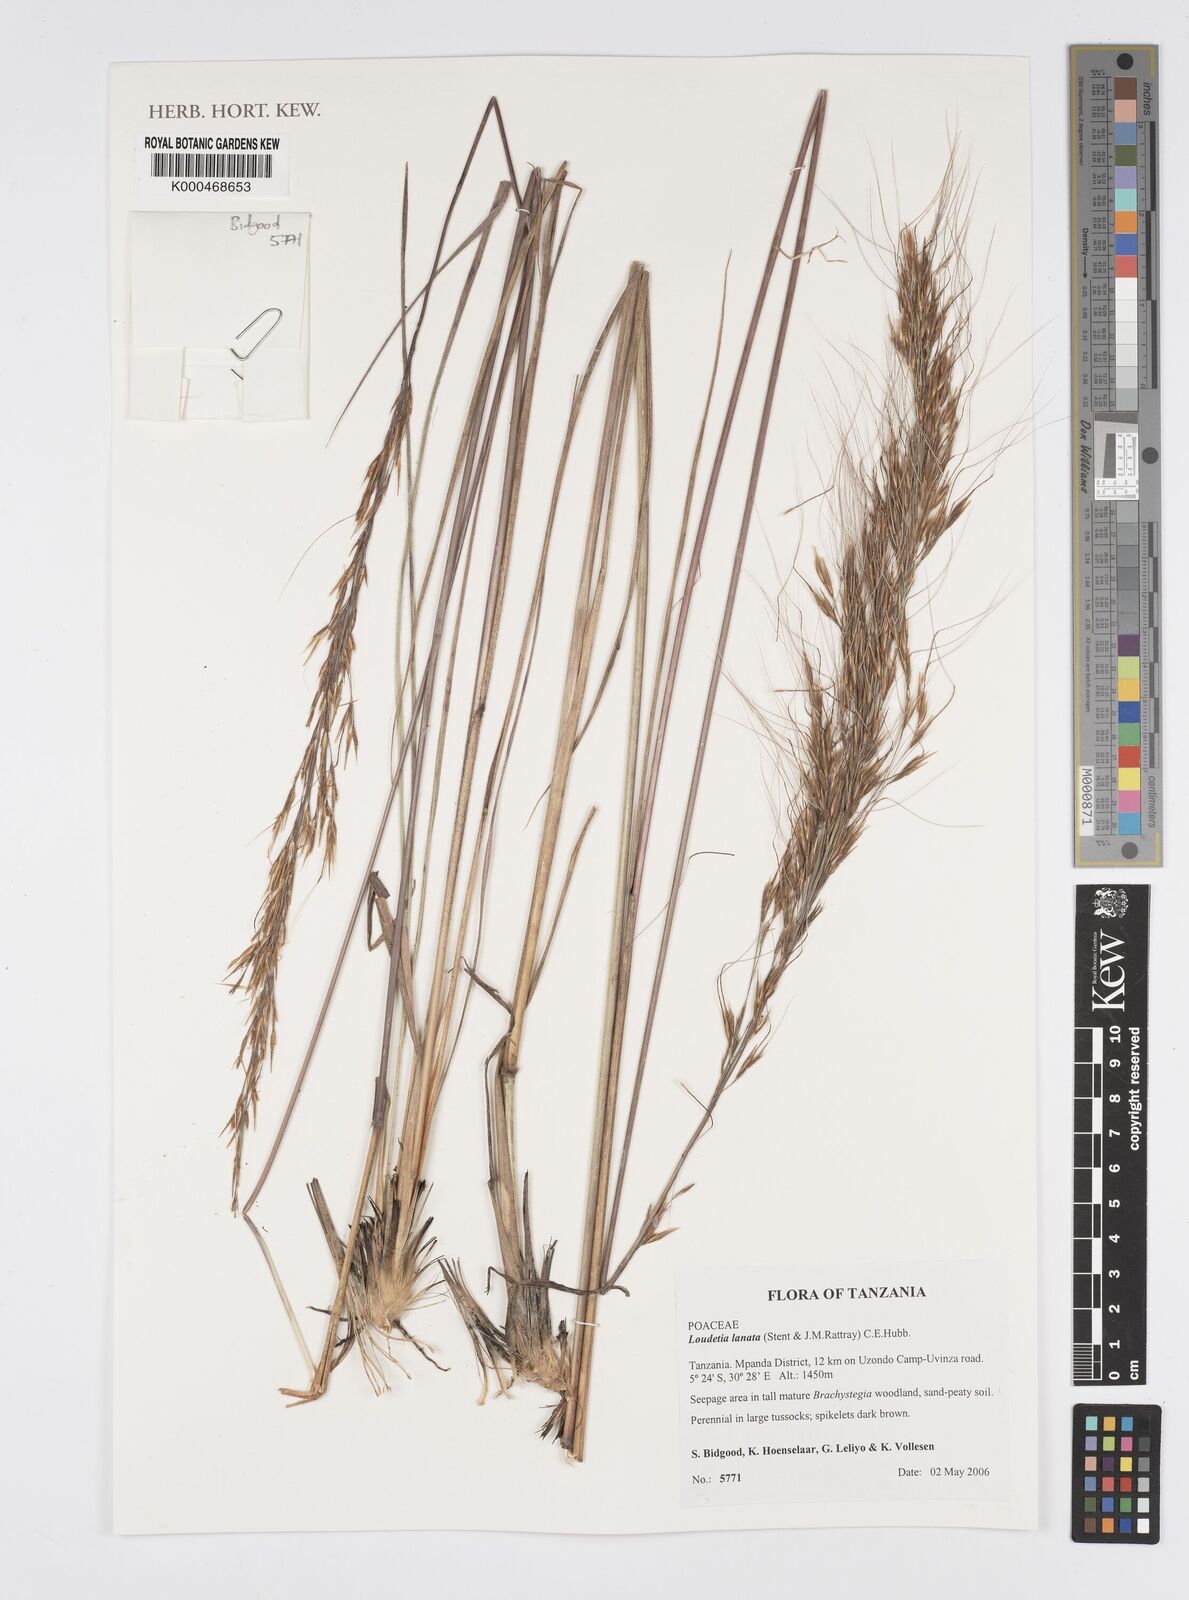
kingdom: Plantae
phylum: Tracheophyta
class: Liliopsida
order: Poales
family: Poaceae
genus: Loudetia
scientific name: Loudetia lanata
